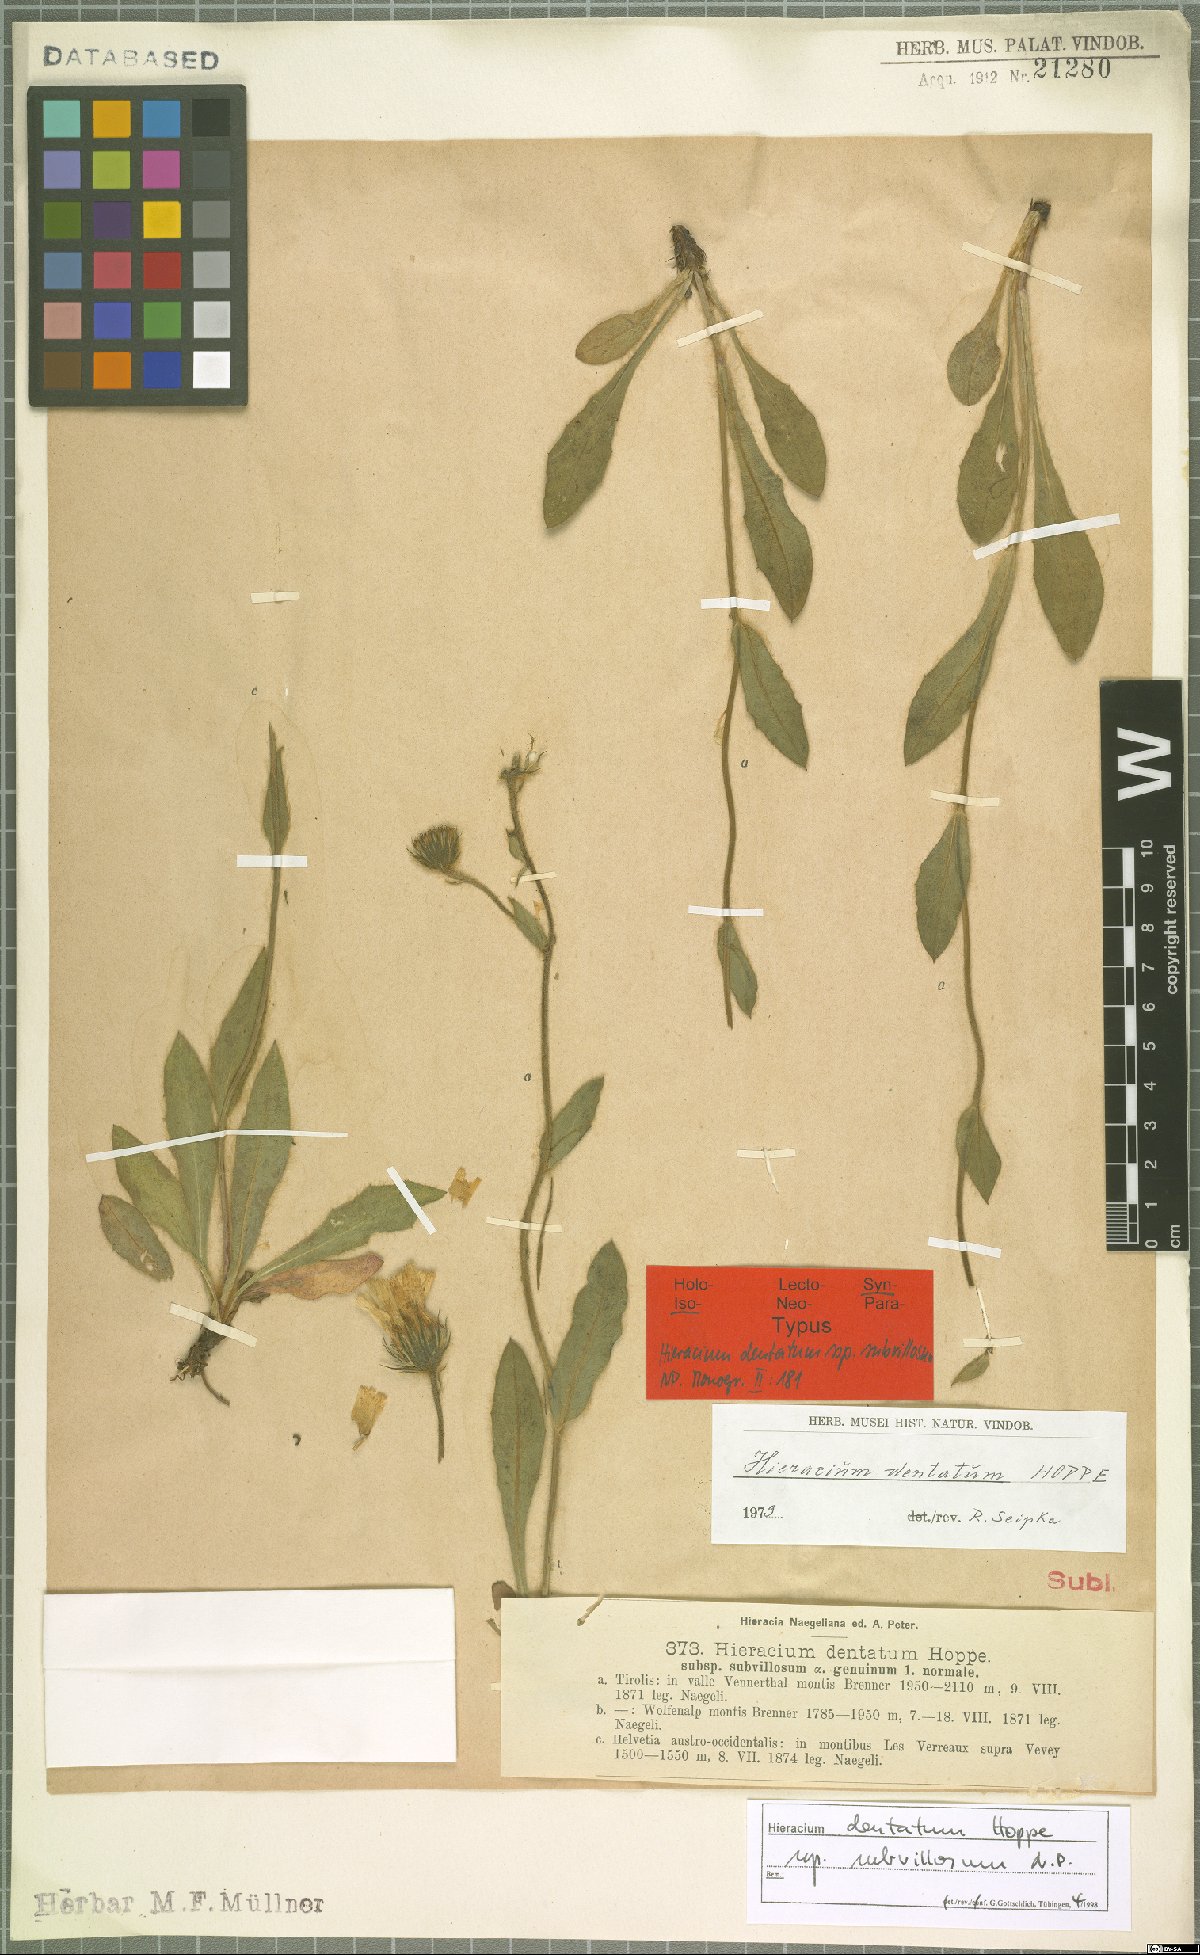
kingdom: Plantae
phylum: Tracheophyta
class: Magnoliopsida
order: Asterales
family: Asteraceae
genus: Hieracium
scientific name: Hieracium dentatum
